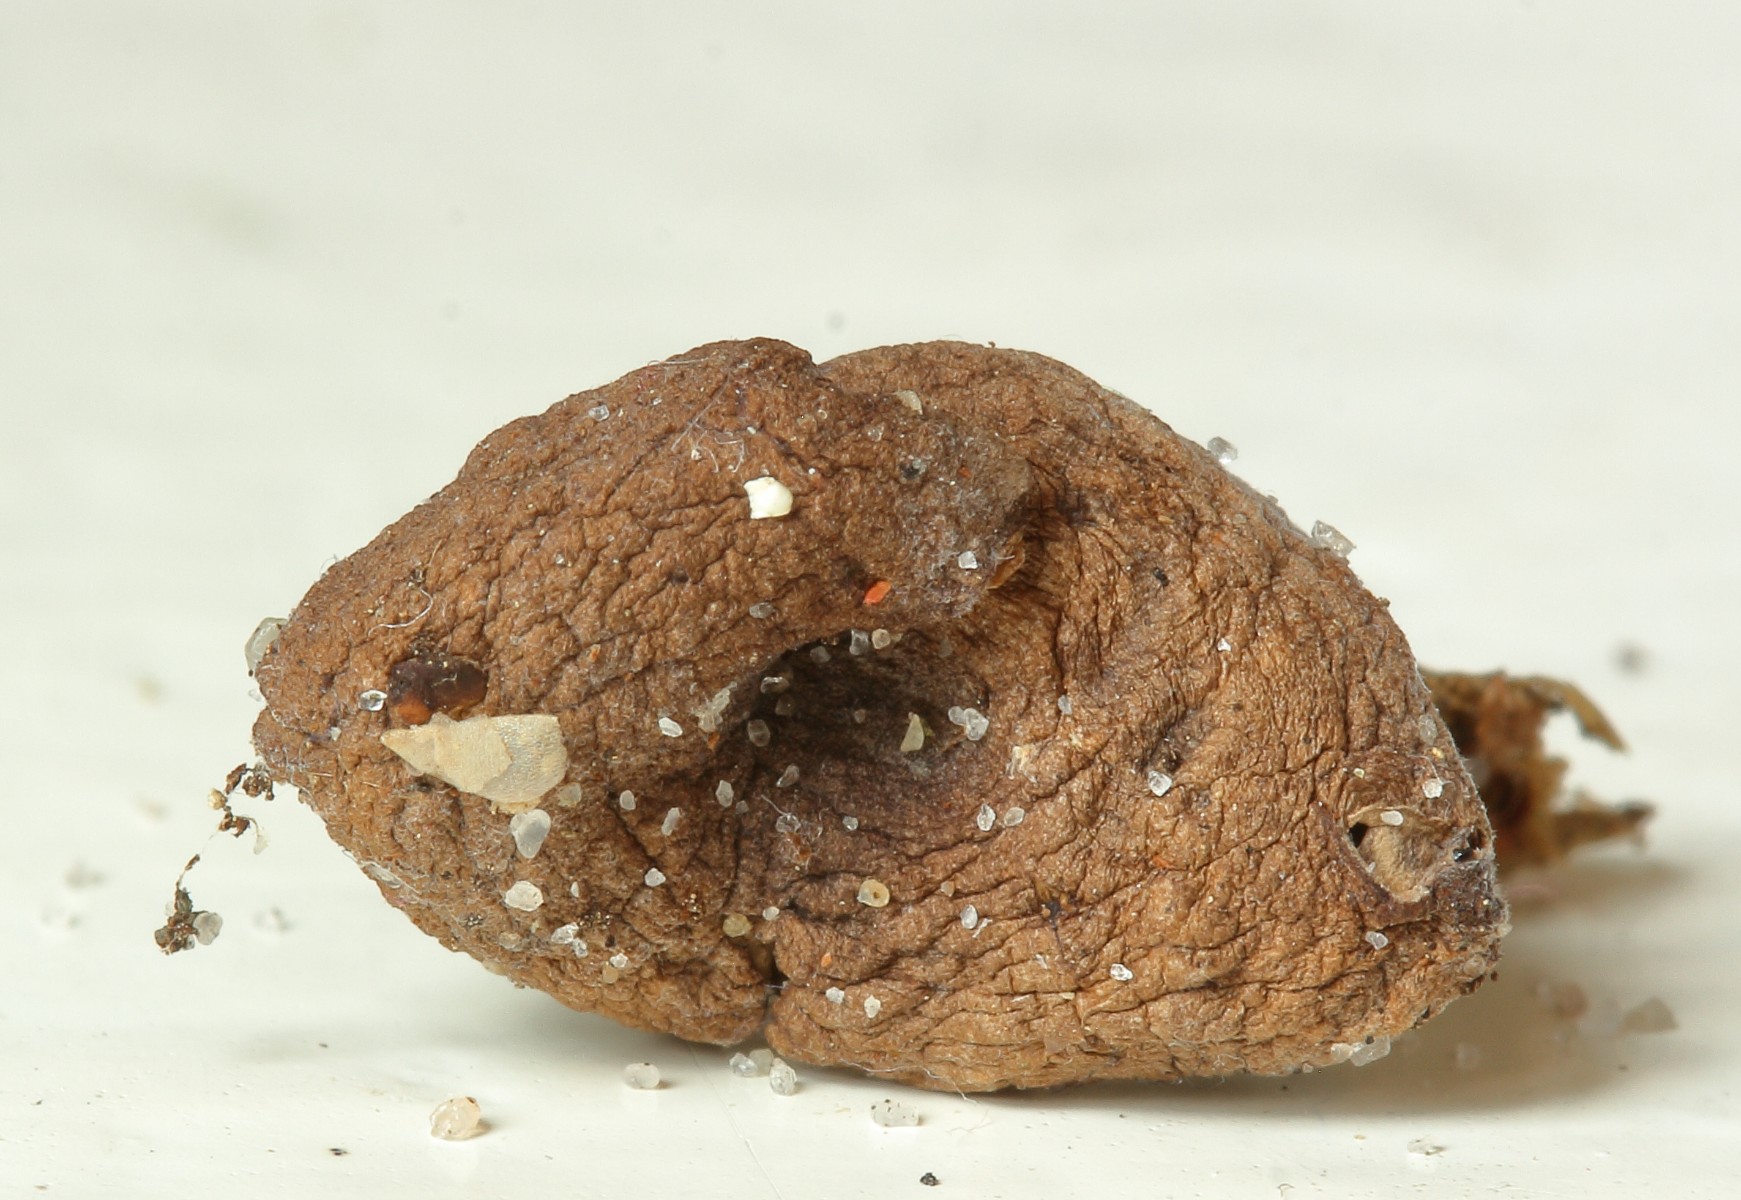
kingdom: Fungi
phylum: Basidiomycota
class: Agaricomycetes
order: Agaricales
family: Entolomataceae
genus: Clitocella
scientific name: Clitocella
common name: troldhat
